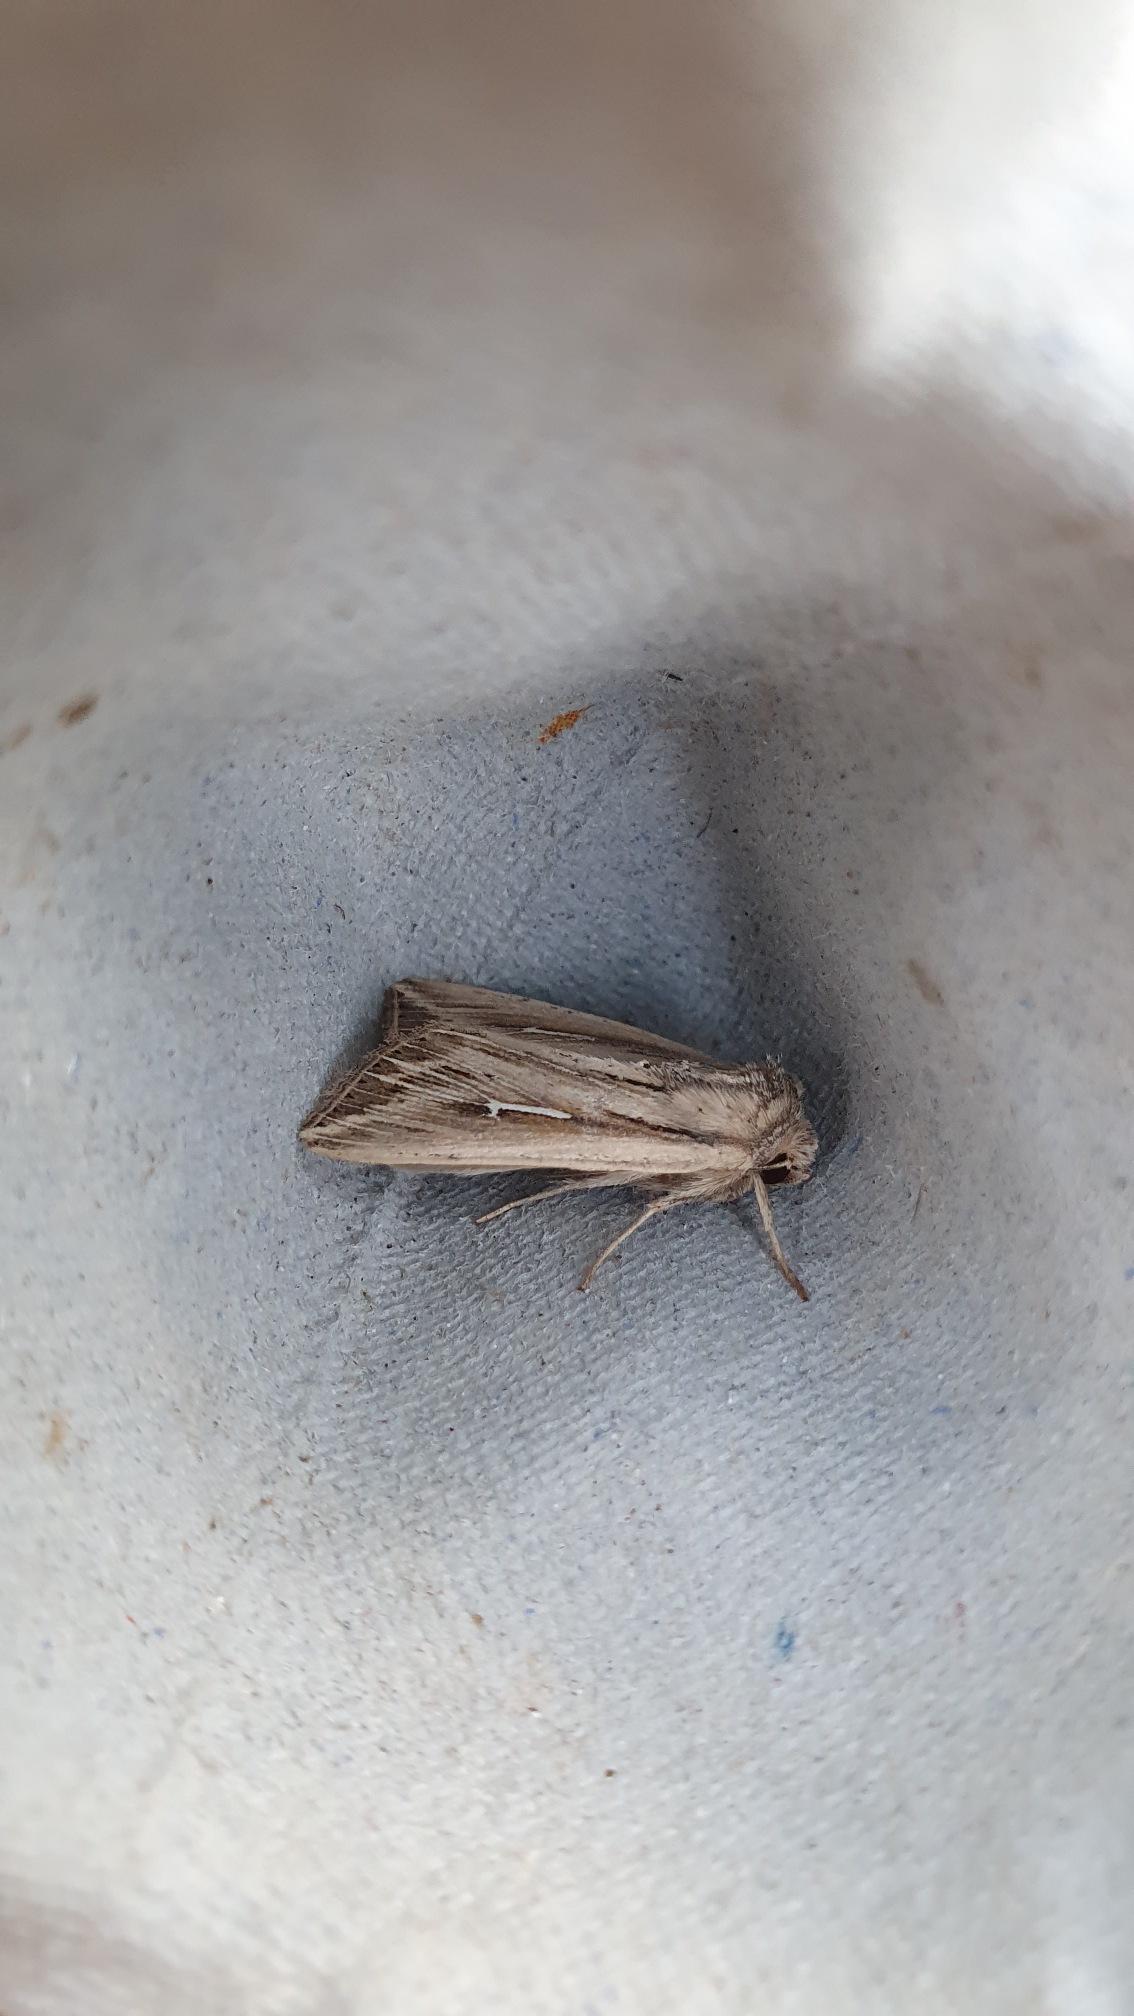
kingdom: Animalia
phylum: Arthropoda
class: Insecta
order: Lepidoptera
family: Noctuidae
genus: Mythimna
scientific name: Mythimna l-album
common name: Det store L
